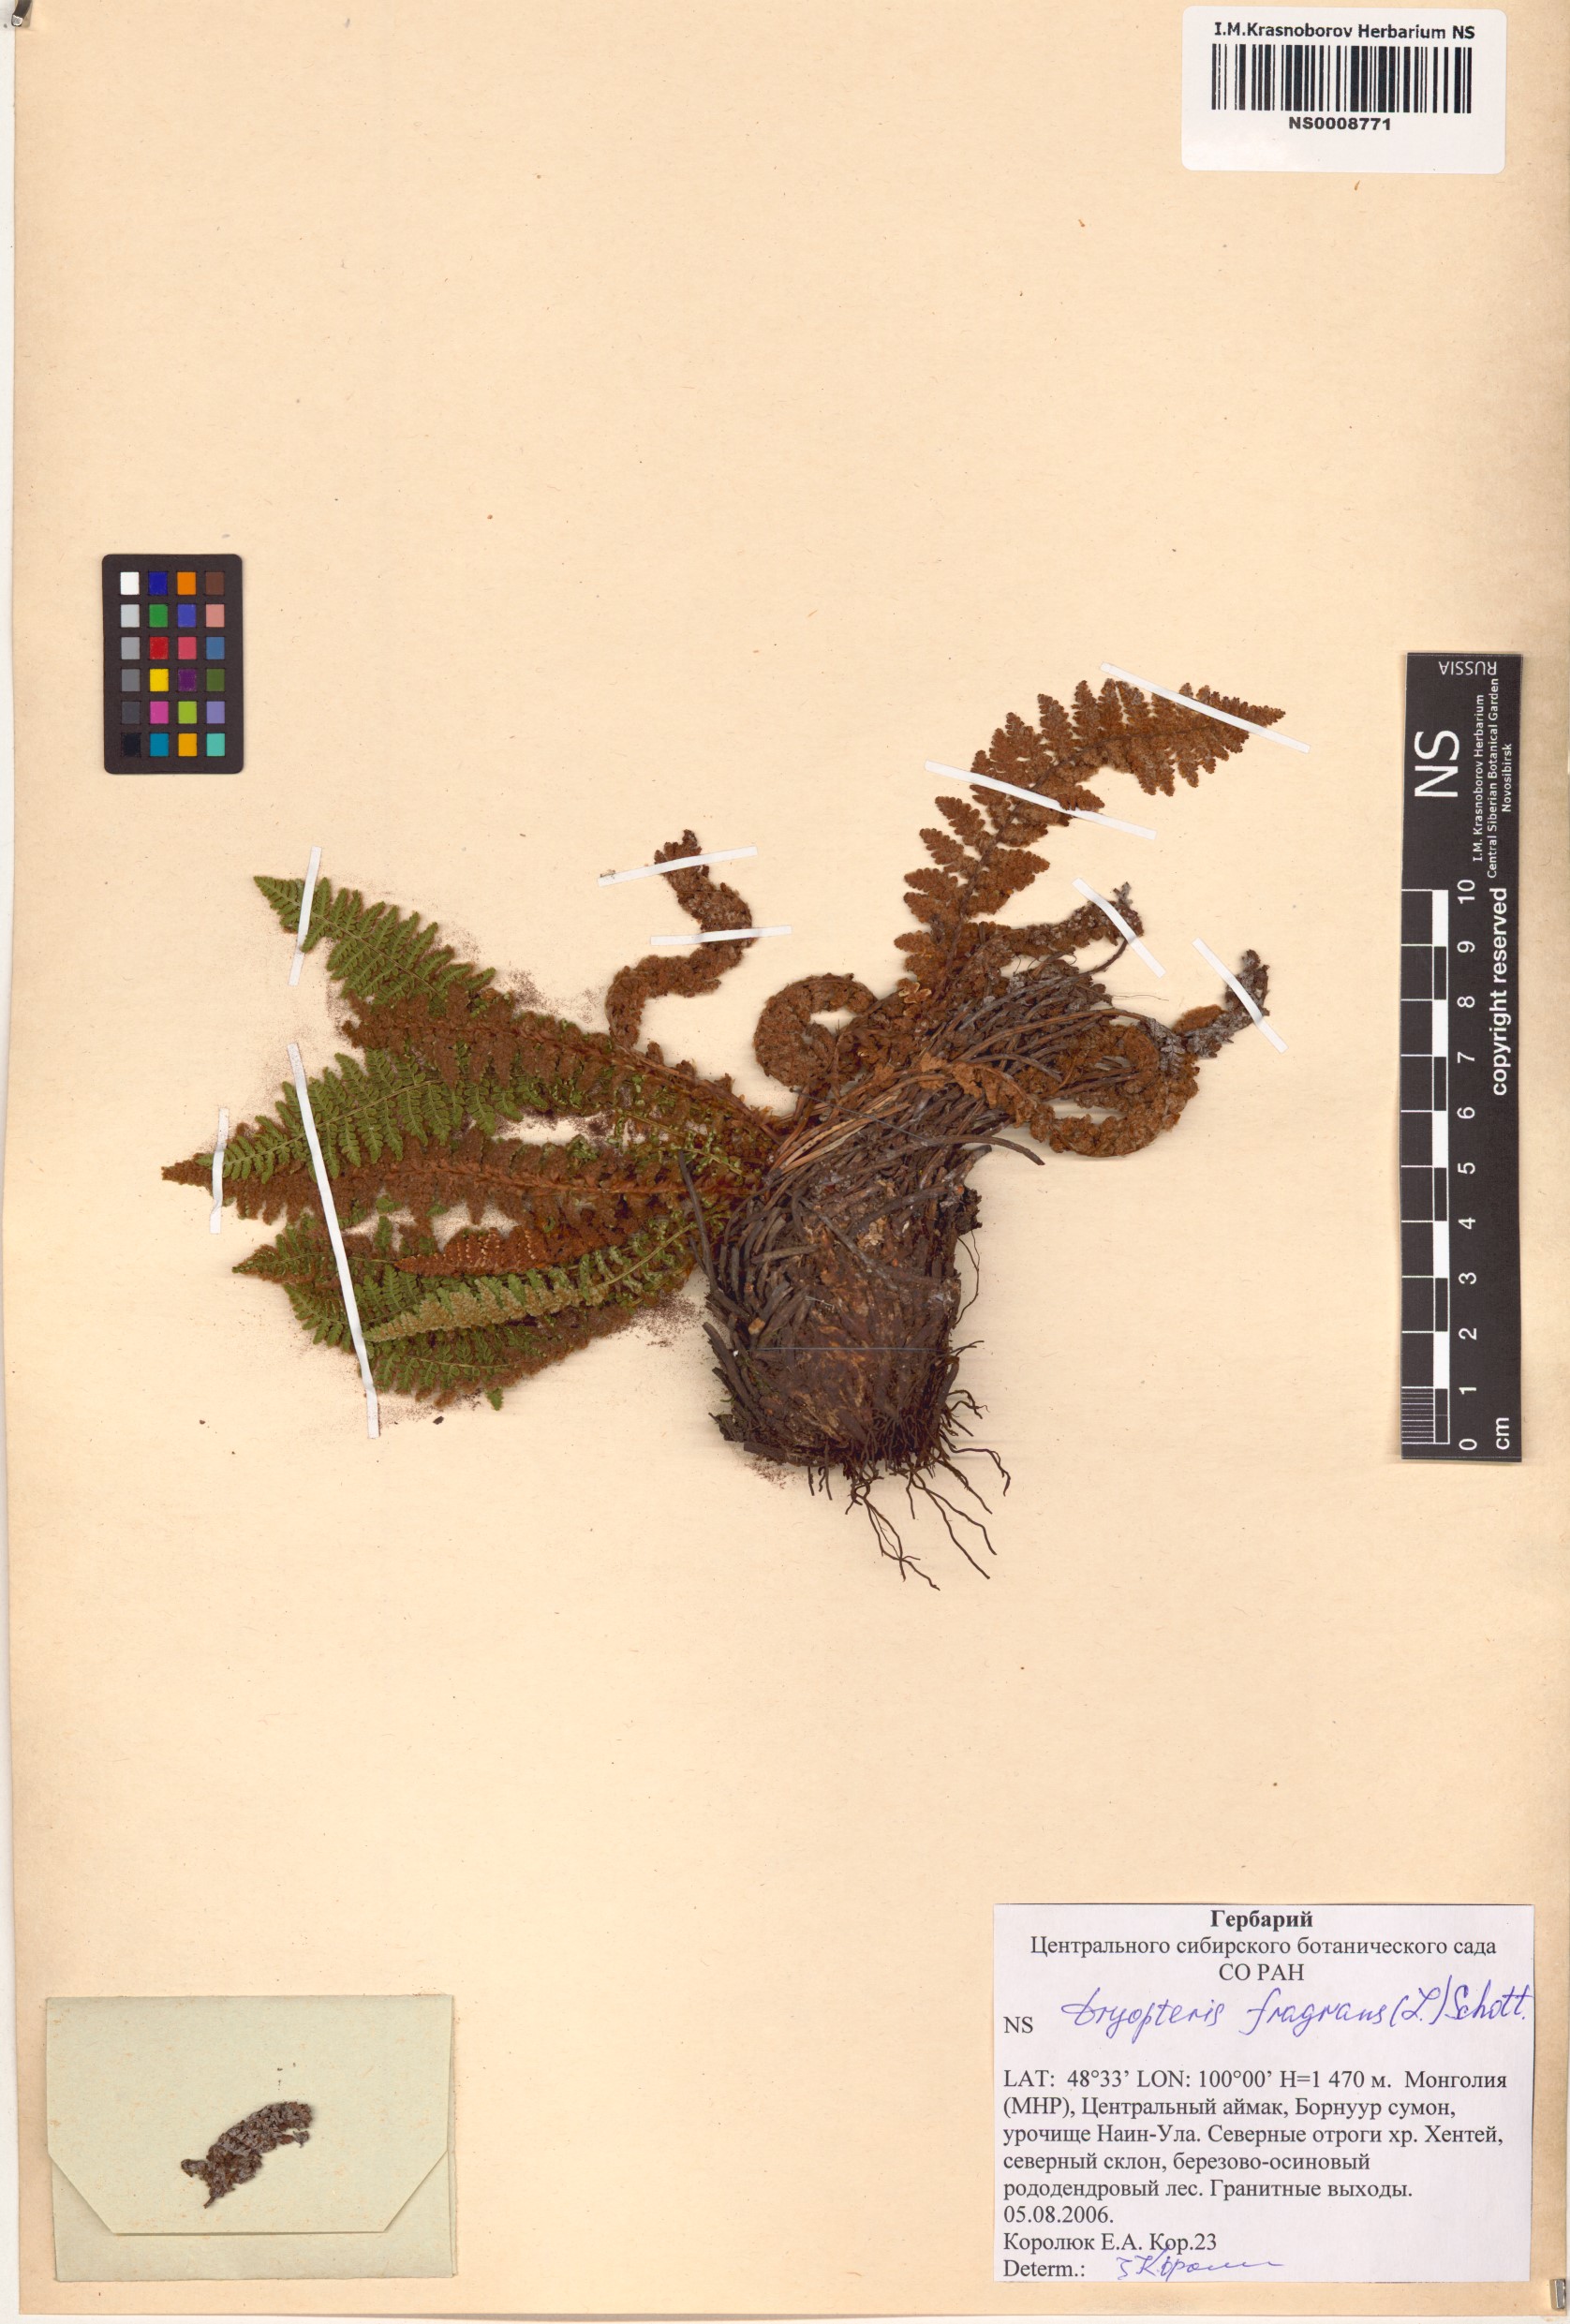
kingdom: Plantae
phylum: Tracheophyta
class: Polypodiopsida
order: Polypodiales
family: Dryopteridaceae
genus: Dryopteris
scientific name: Dryopteris fragrans
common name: Fragrant wood fern
